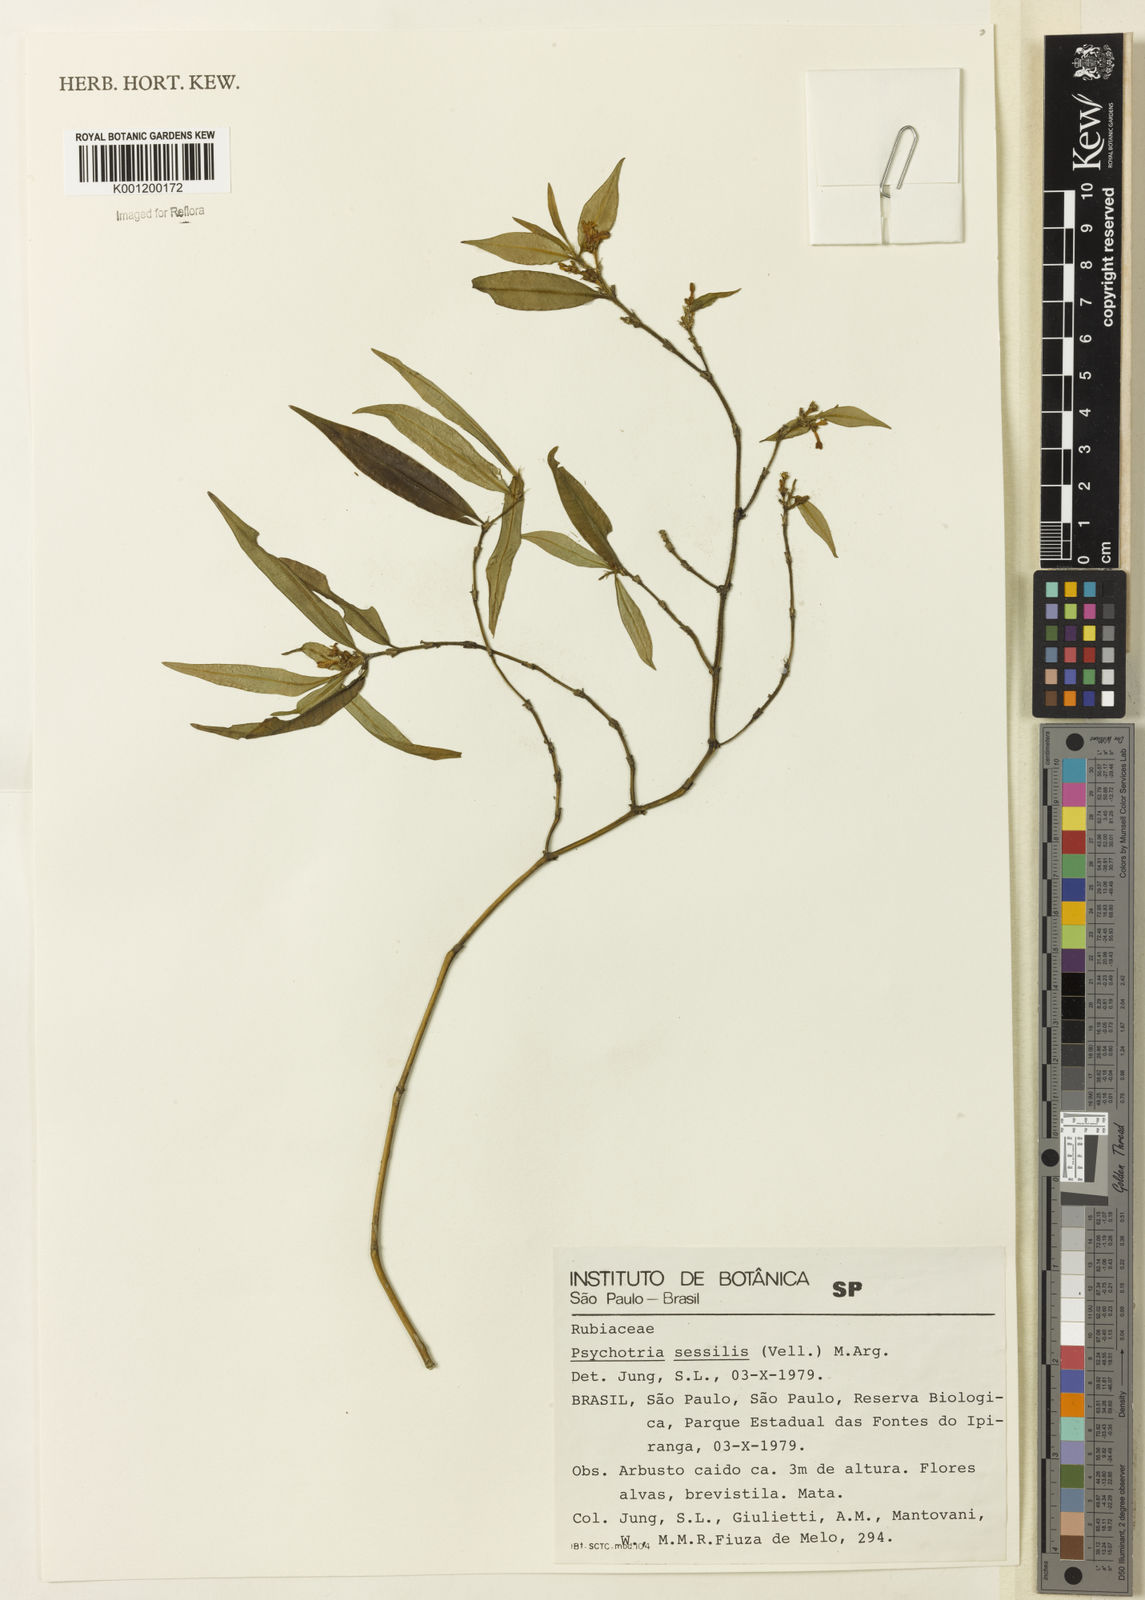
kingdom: Plantae
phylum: Tracheophyta
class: Magnoliopsida
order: Gentianales
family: Rubiaceae
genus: Rudgea
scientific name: Rudgea sessilis
